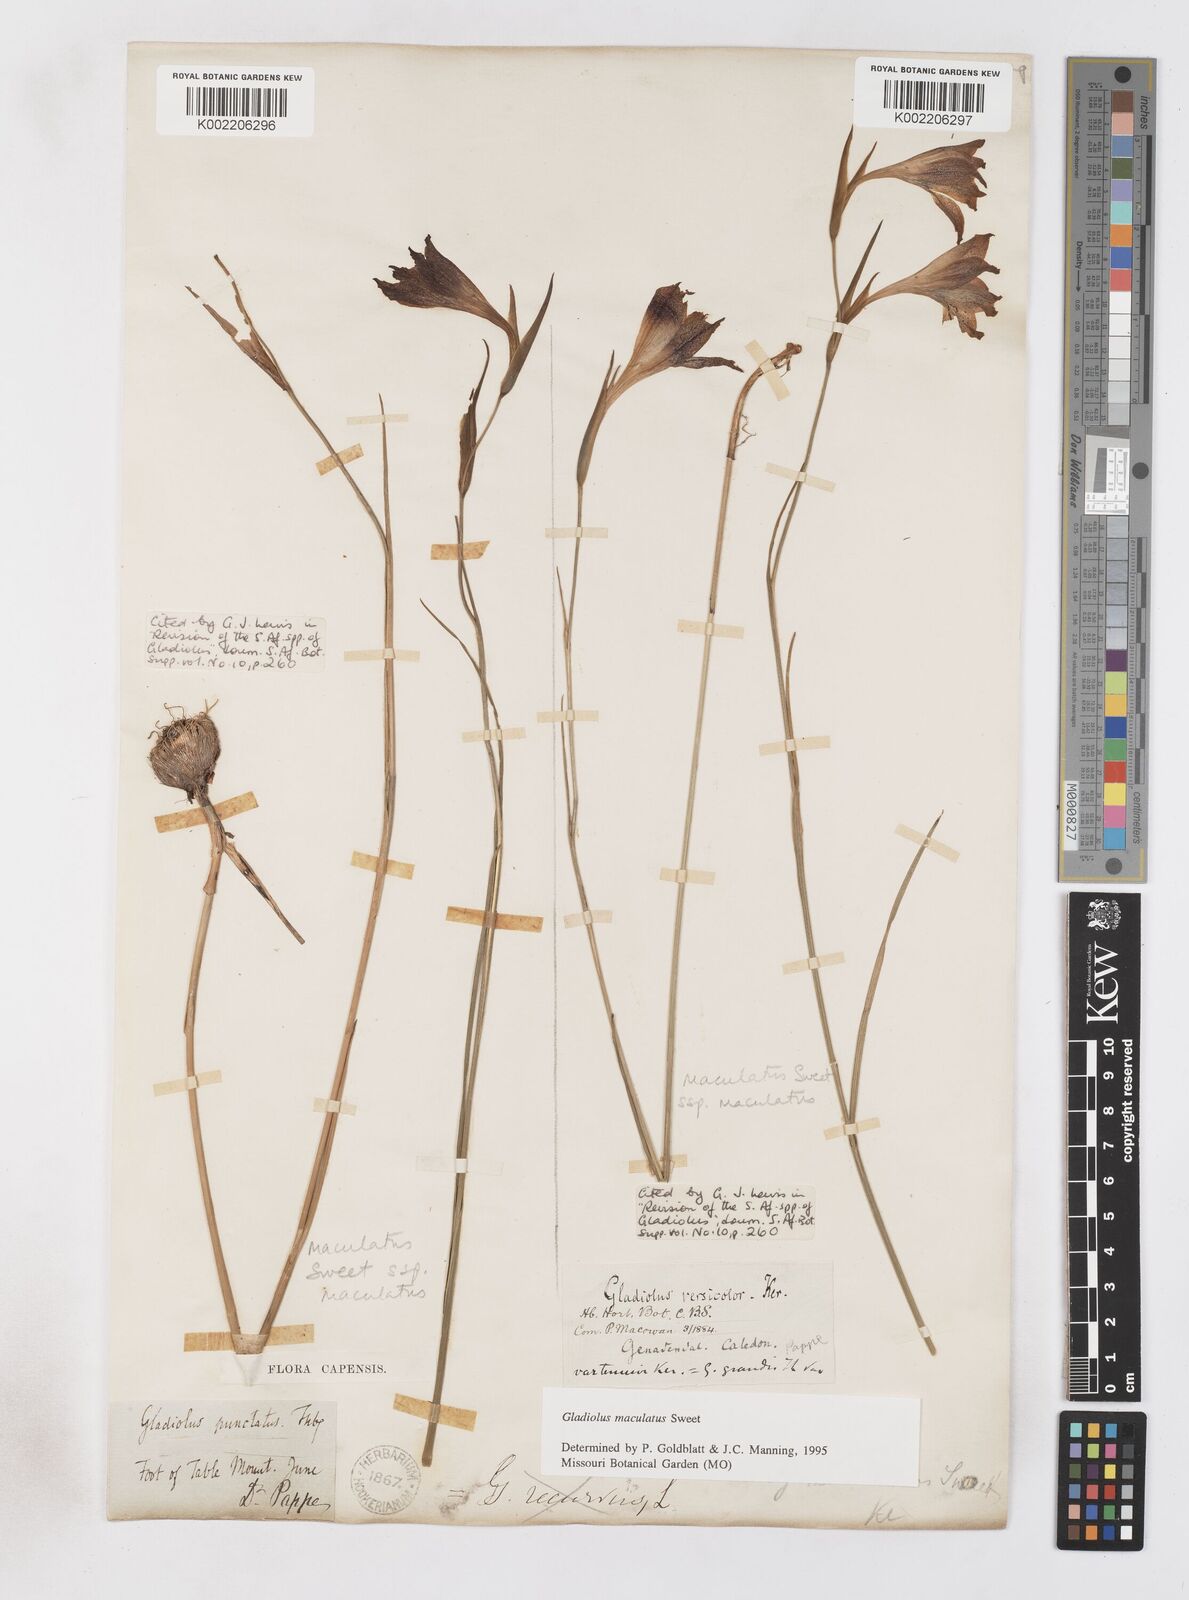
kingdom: Plantae
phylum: Tracheophyta
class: Liliopsida
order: Asparagales
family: Iridaceae
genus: Gladiolus
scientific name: Gladiolus maculatus
